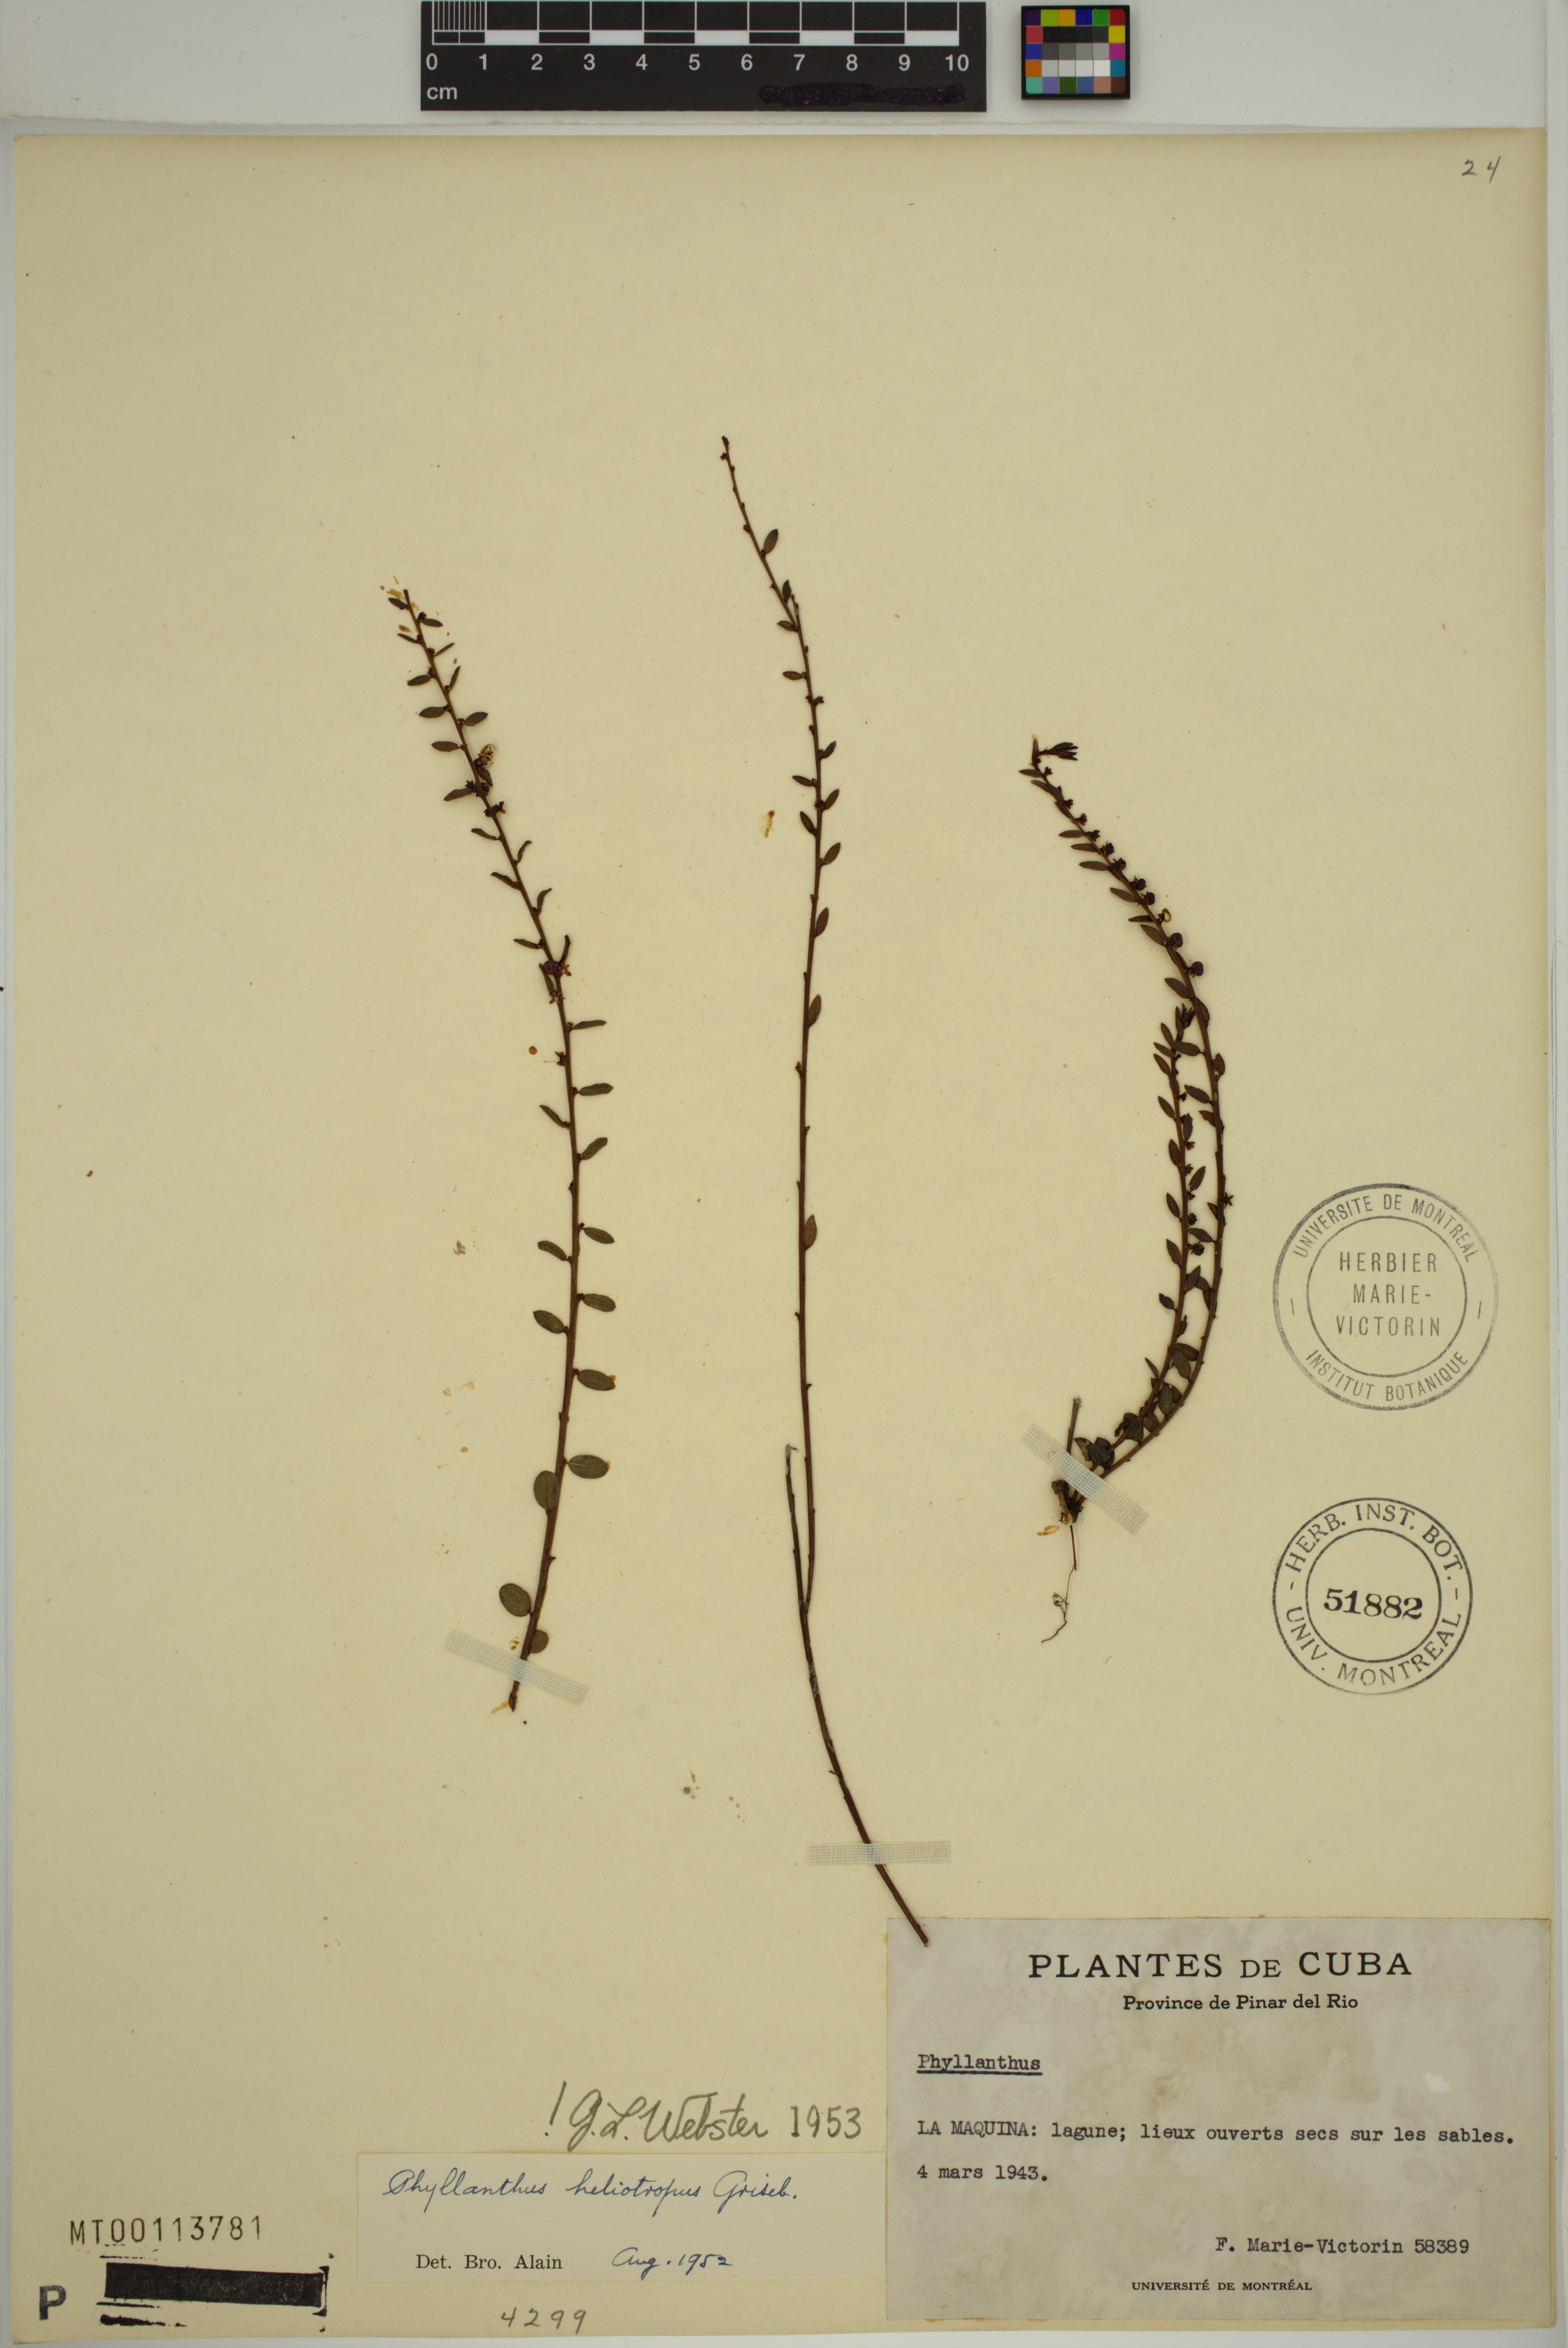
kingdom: Plantae
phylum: Tracheophyta
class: Magnoliopsida
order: Malpighiales
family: Phyllanthaceae
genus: Phyllanthus
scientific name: Phyllanthus heliotropus
